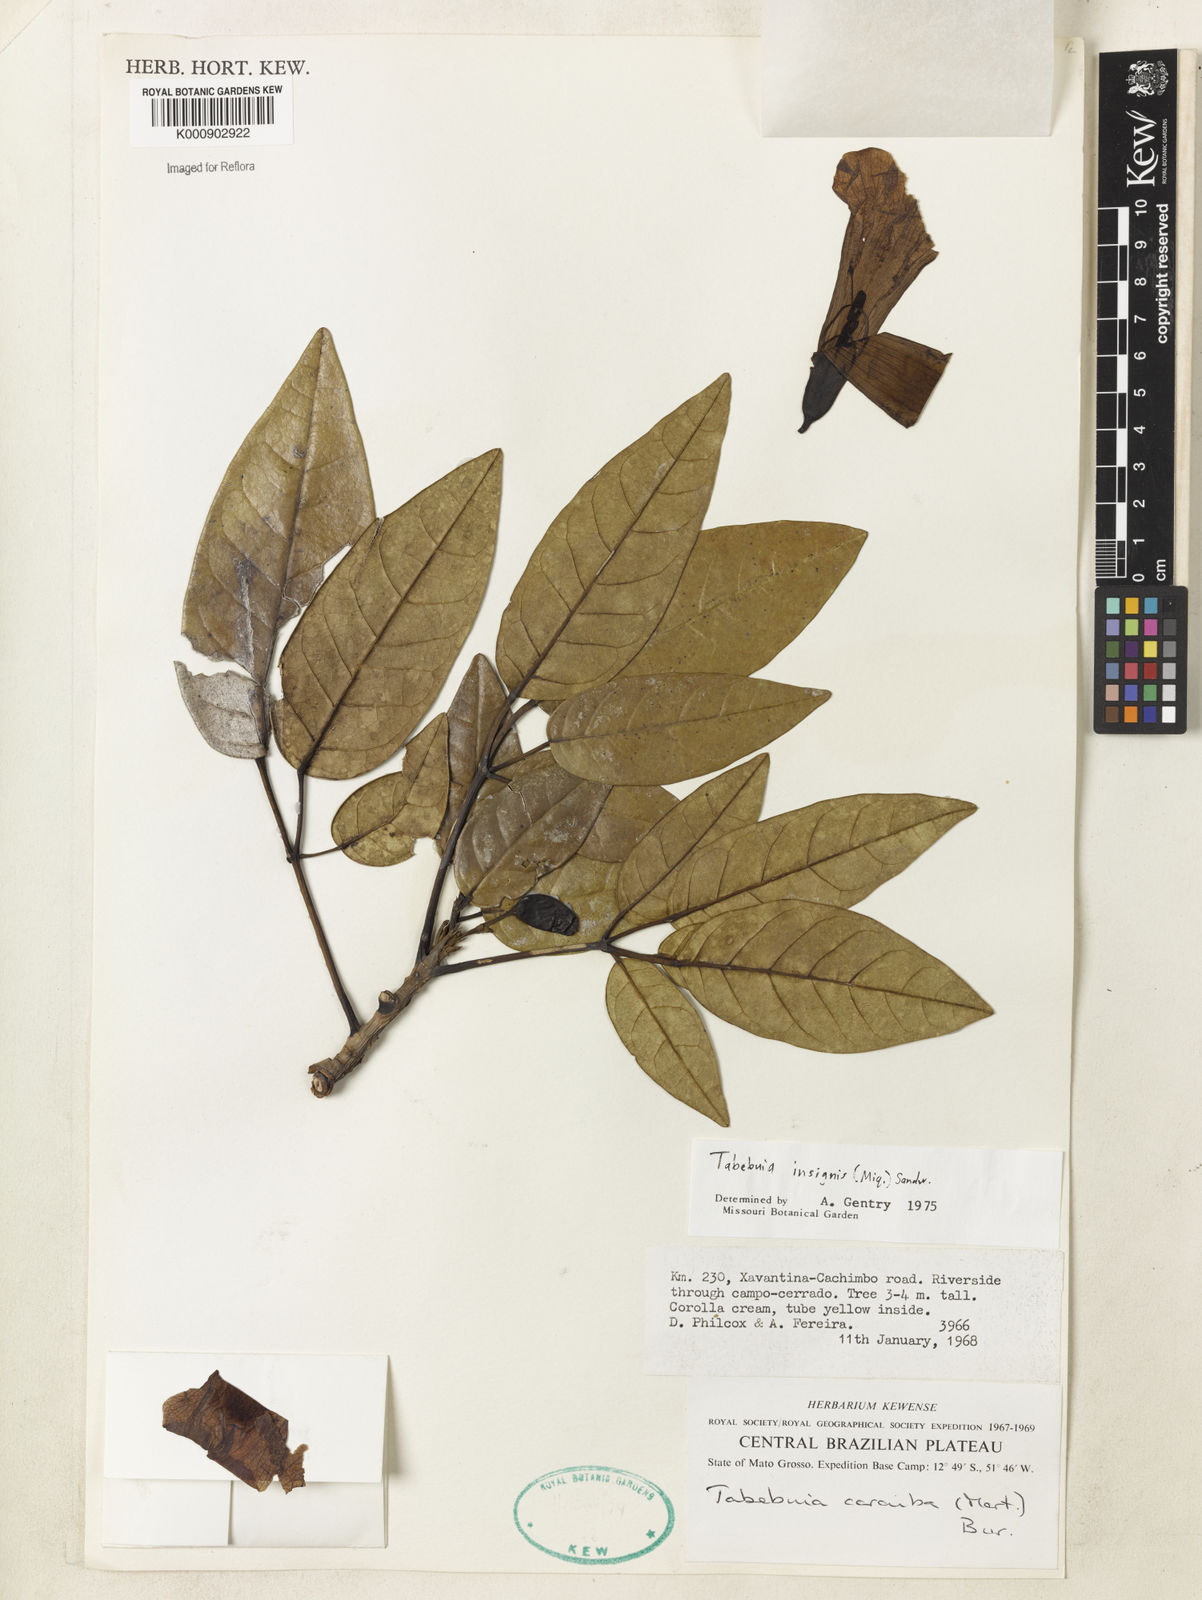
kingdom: Plantae
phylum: Tracheophyta
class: Magnoliopsida
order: Lamiales
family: Bignoniaceae
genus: Tabebuia
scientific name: Tabebuia insignis
